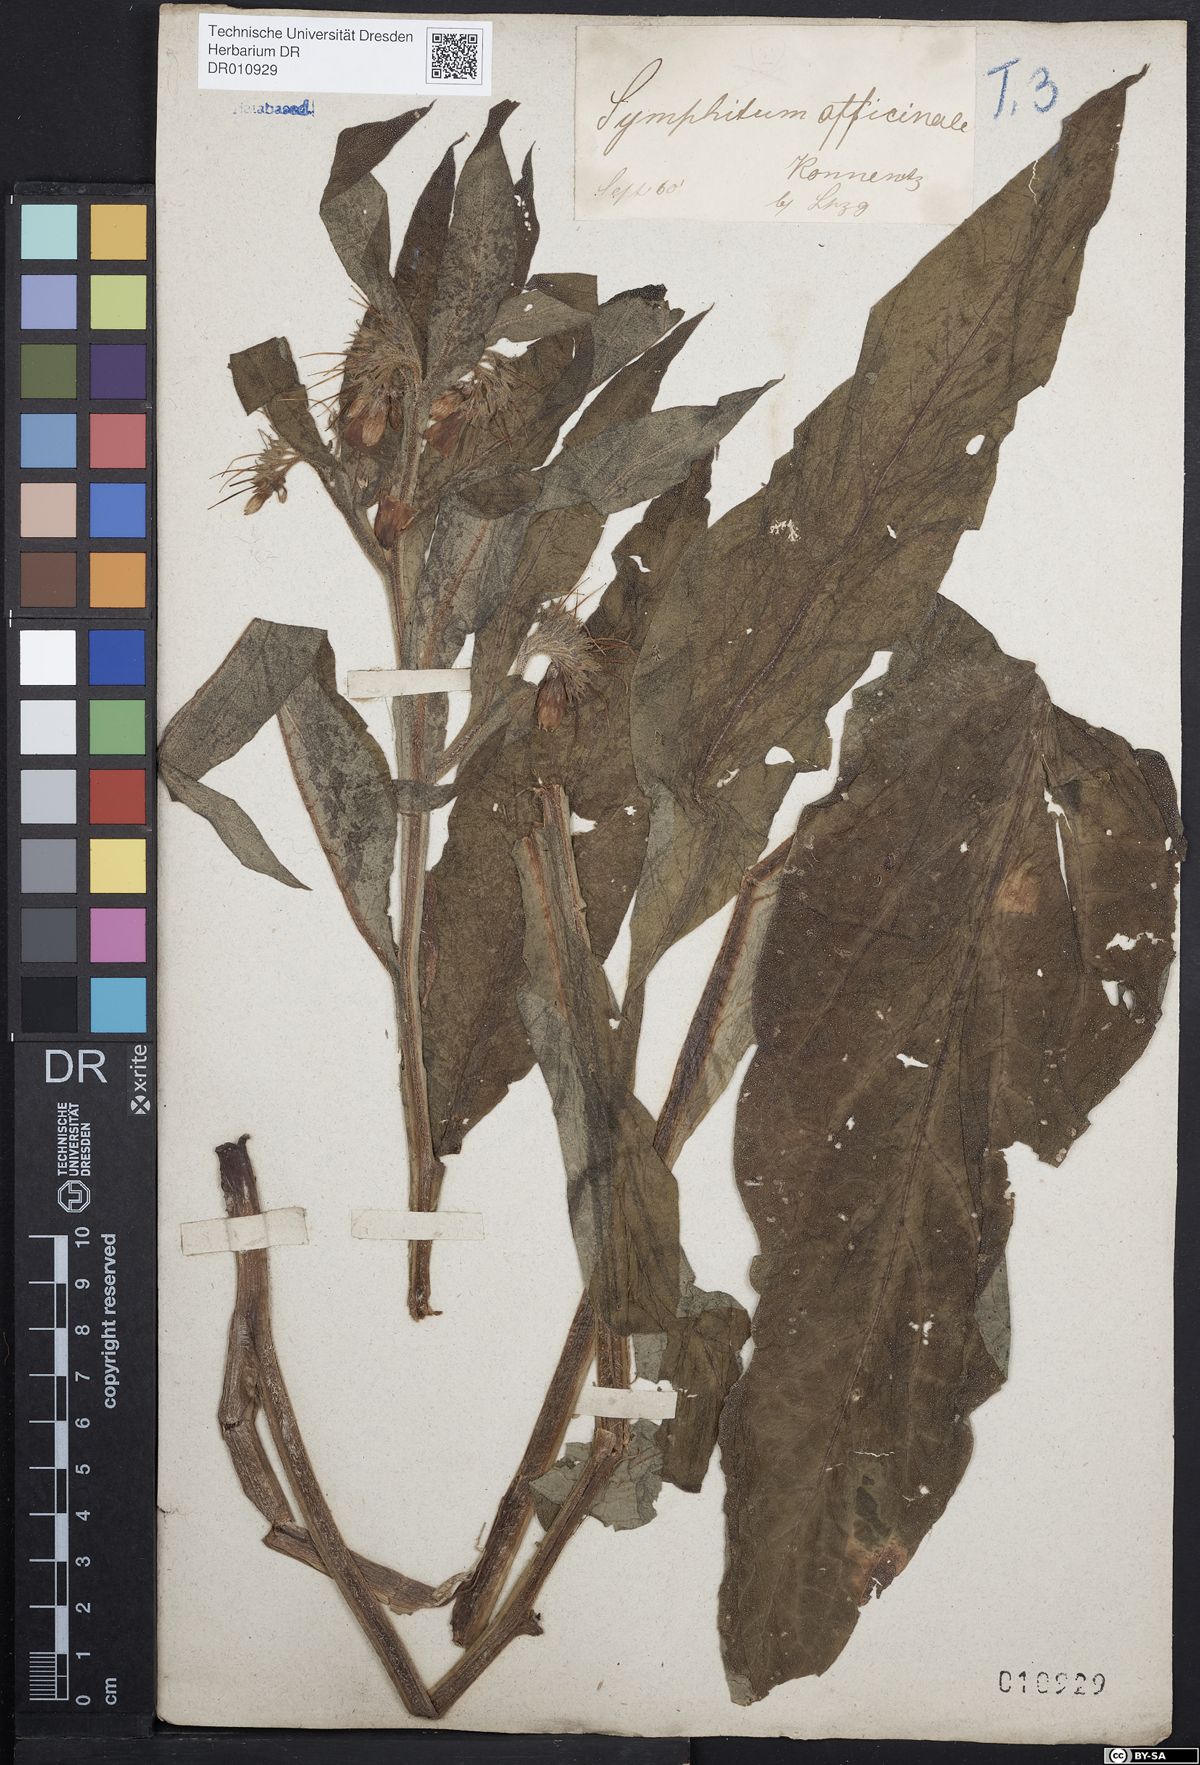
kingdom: Plantae
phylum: Tracheophyta
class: Magnoliopsida
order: Boraginales
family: Boraginaceae
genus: Symphytum
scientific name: Symphytum officinale
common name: Common comfrey
